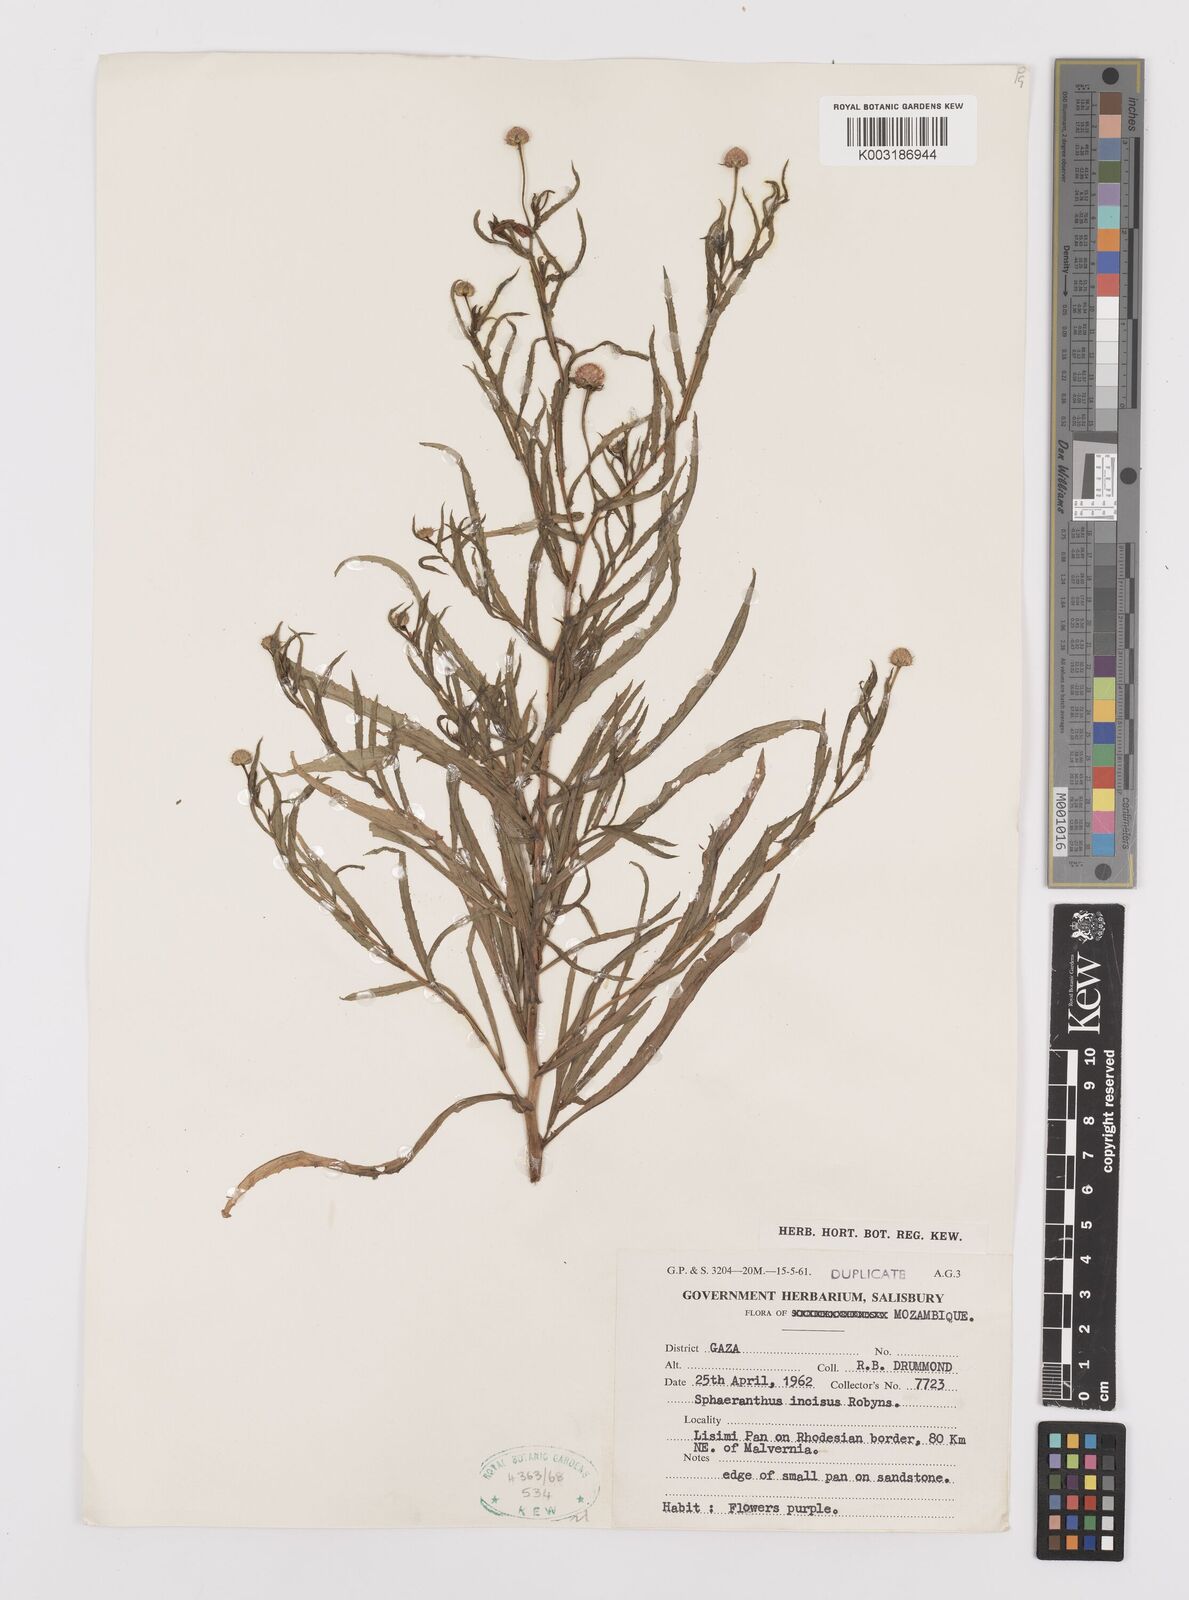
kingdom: Plantae
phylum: Tracheophyta
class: Magnoliopsida
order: Asterales
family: Asteraceae
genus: Sphaeranthus
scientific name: Sphaeranthus peduncularis
